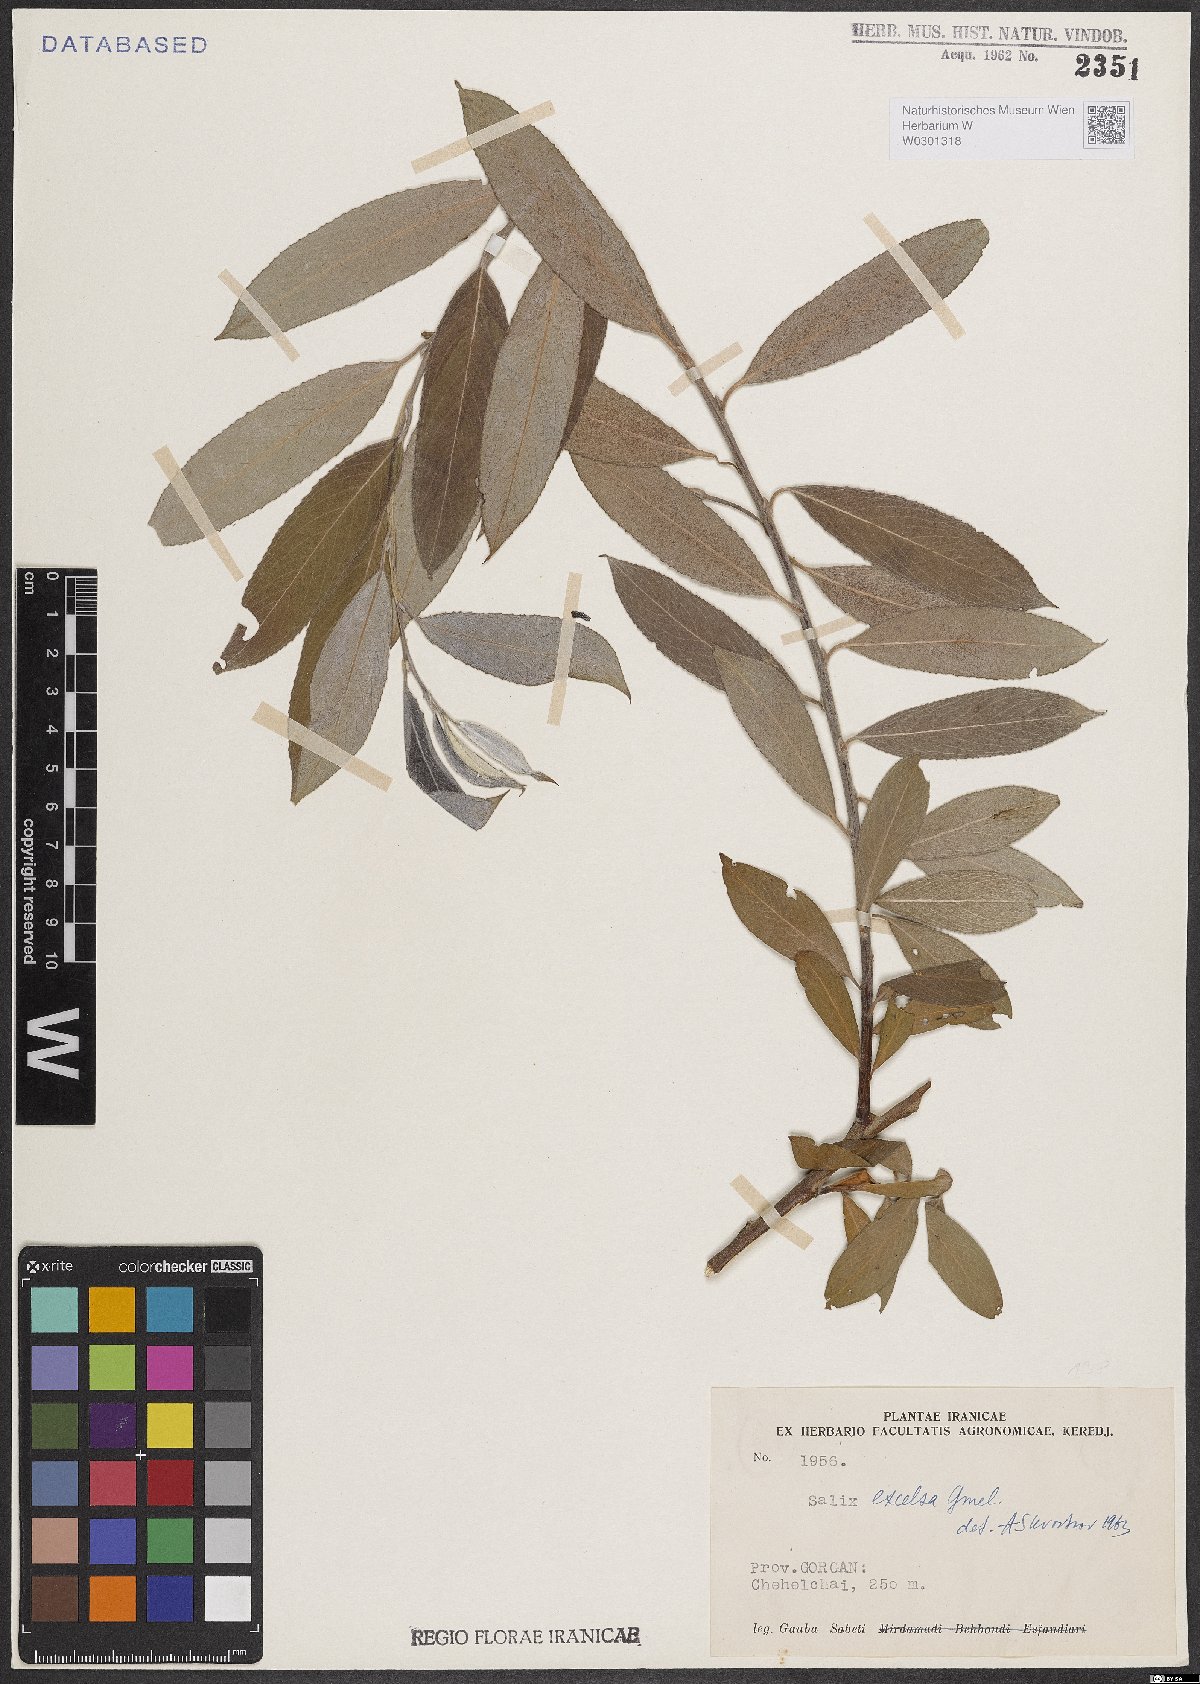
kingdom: Plantae
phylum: Tracheophyta
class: Magnoliopsida
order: Malpighiales
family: Salicaceae
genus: Salix
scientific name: Salix excelsa
